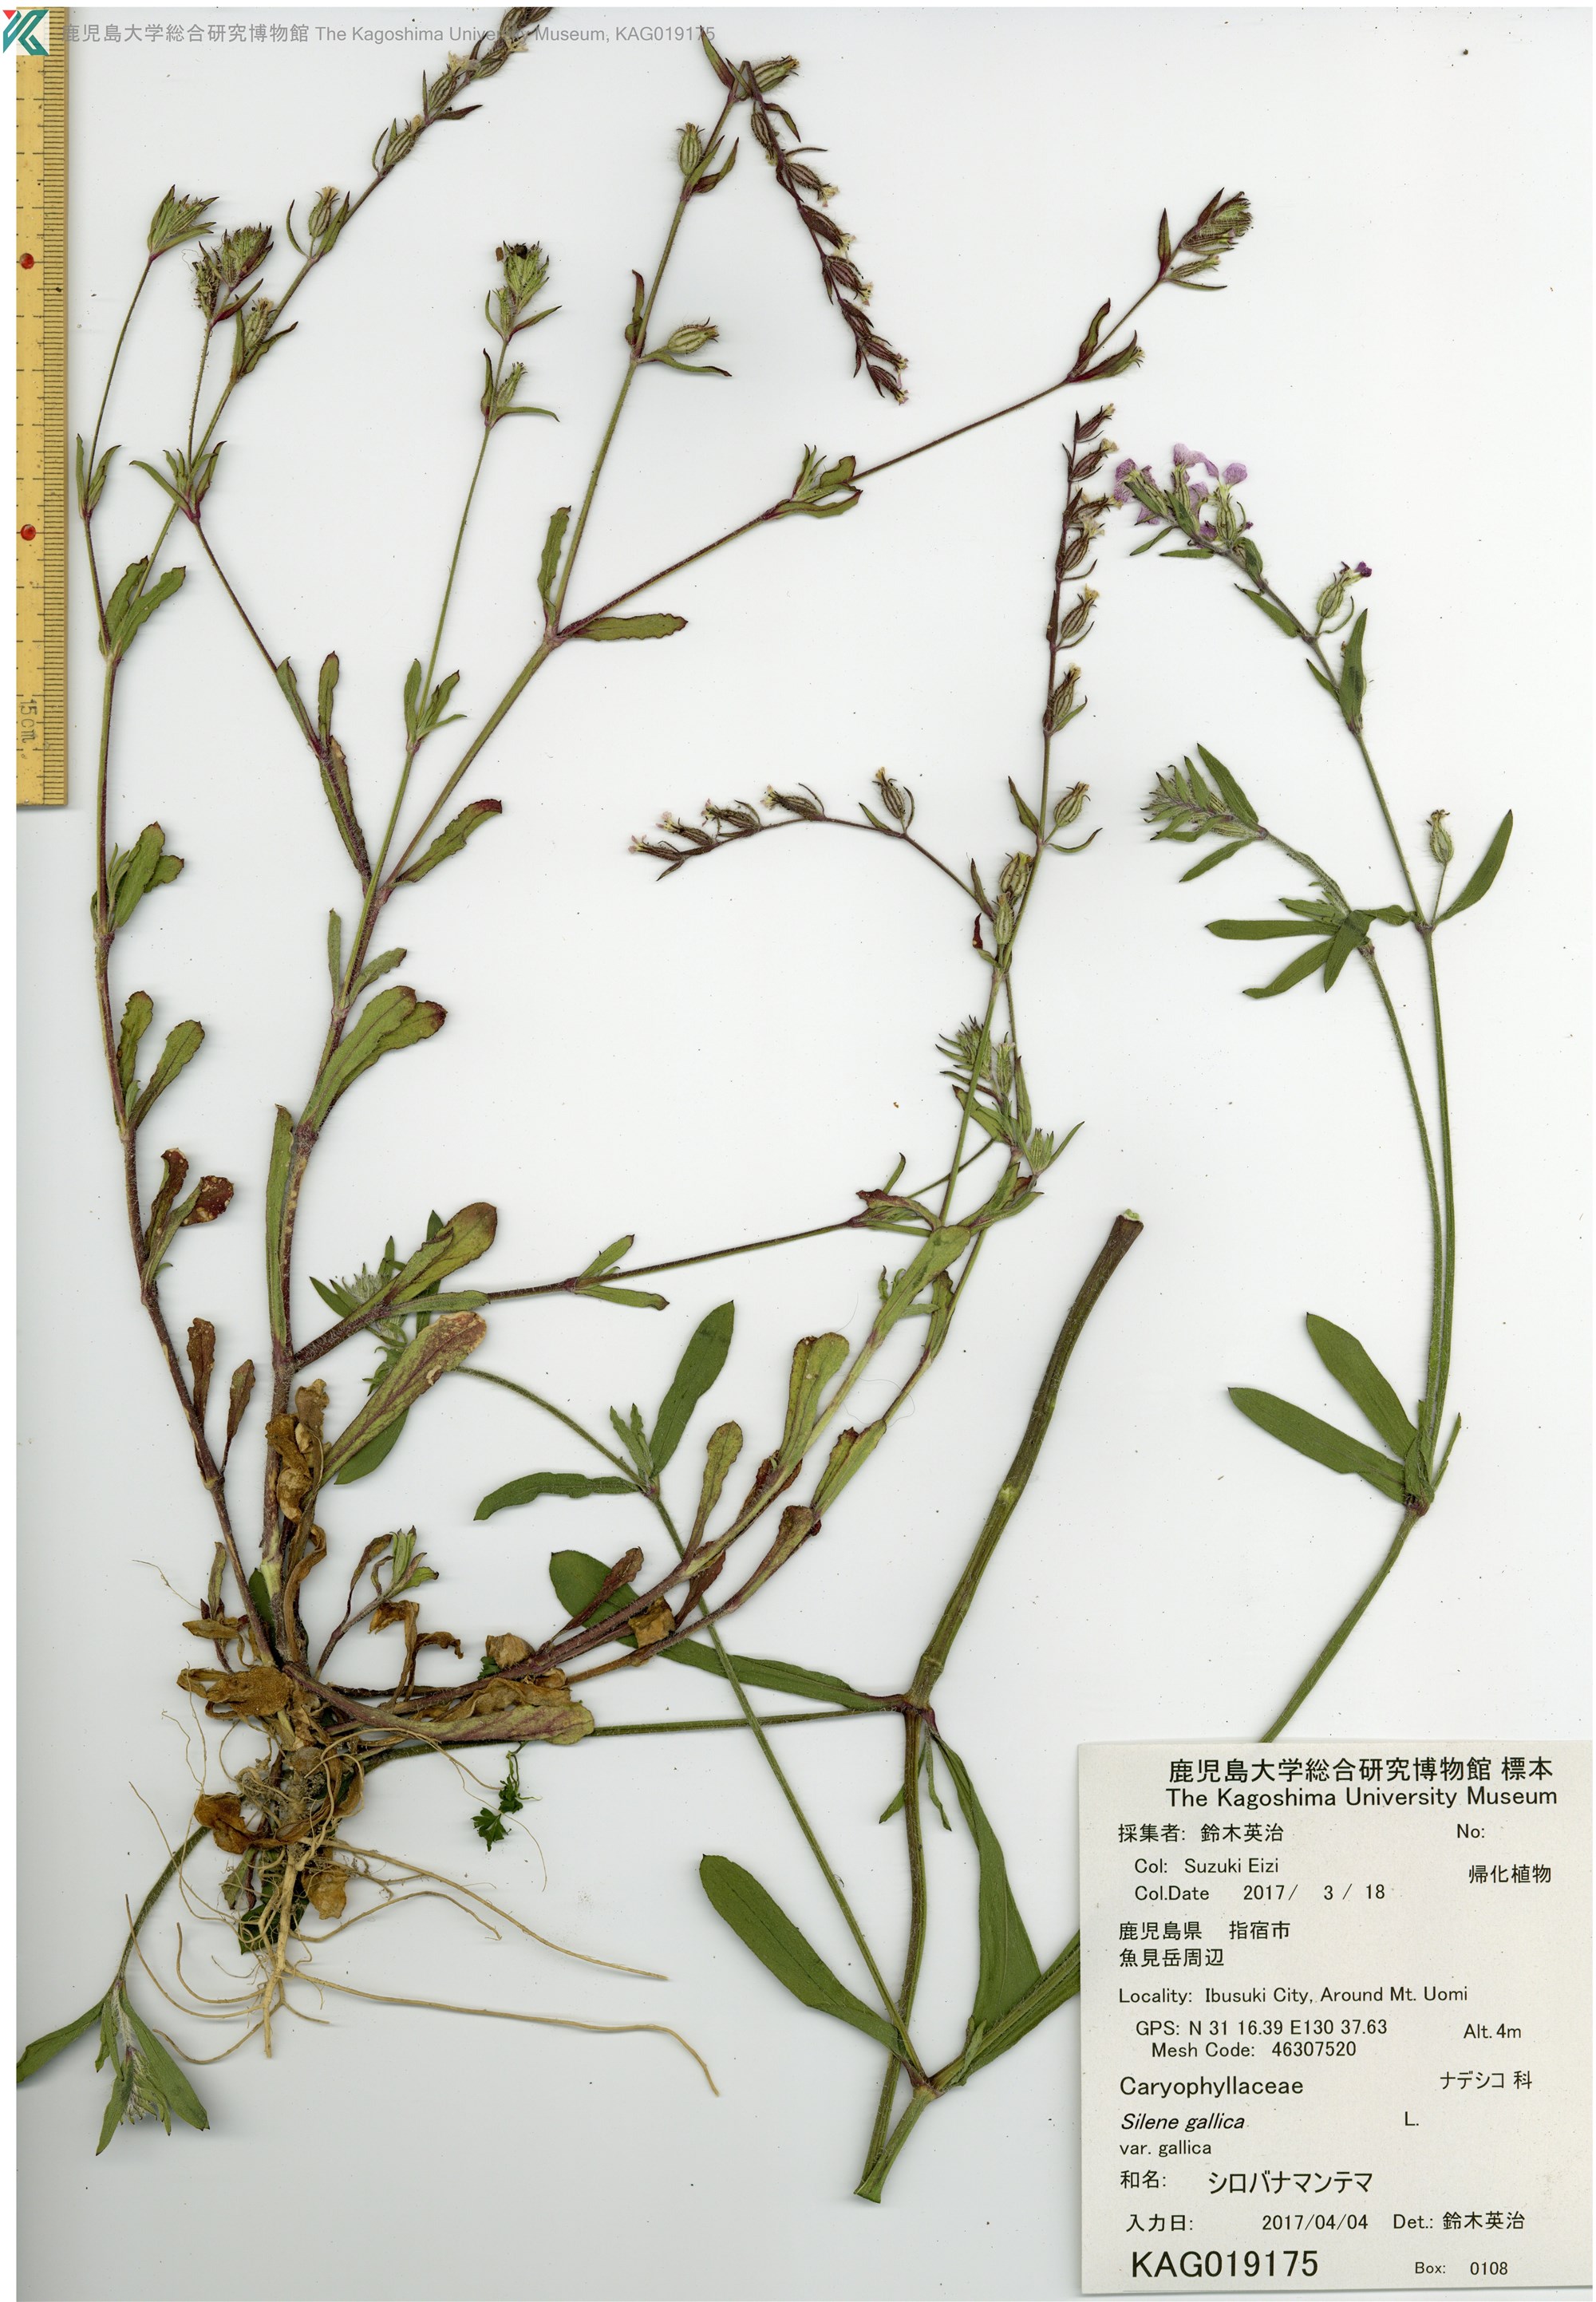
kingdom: Plantae
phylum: Tracheophyta
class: Magnoliopsida
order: Caryophyllales
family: Caryophyllaceae
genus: Silene
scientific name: Silene gallica
